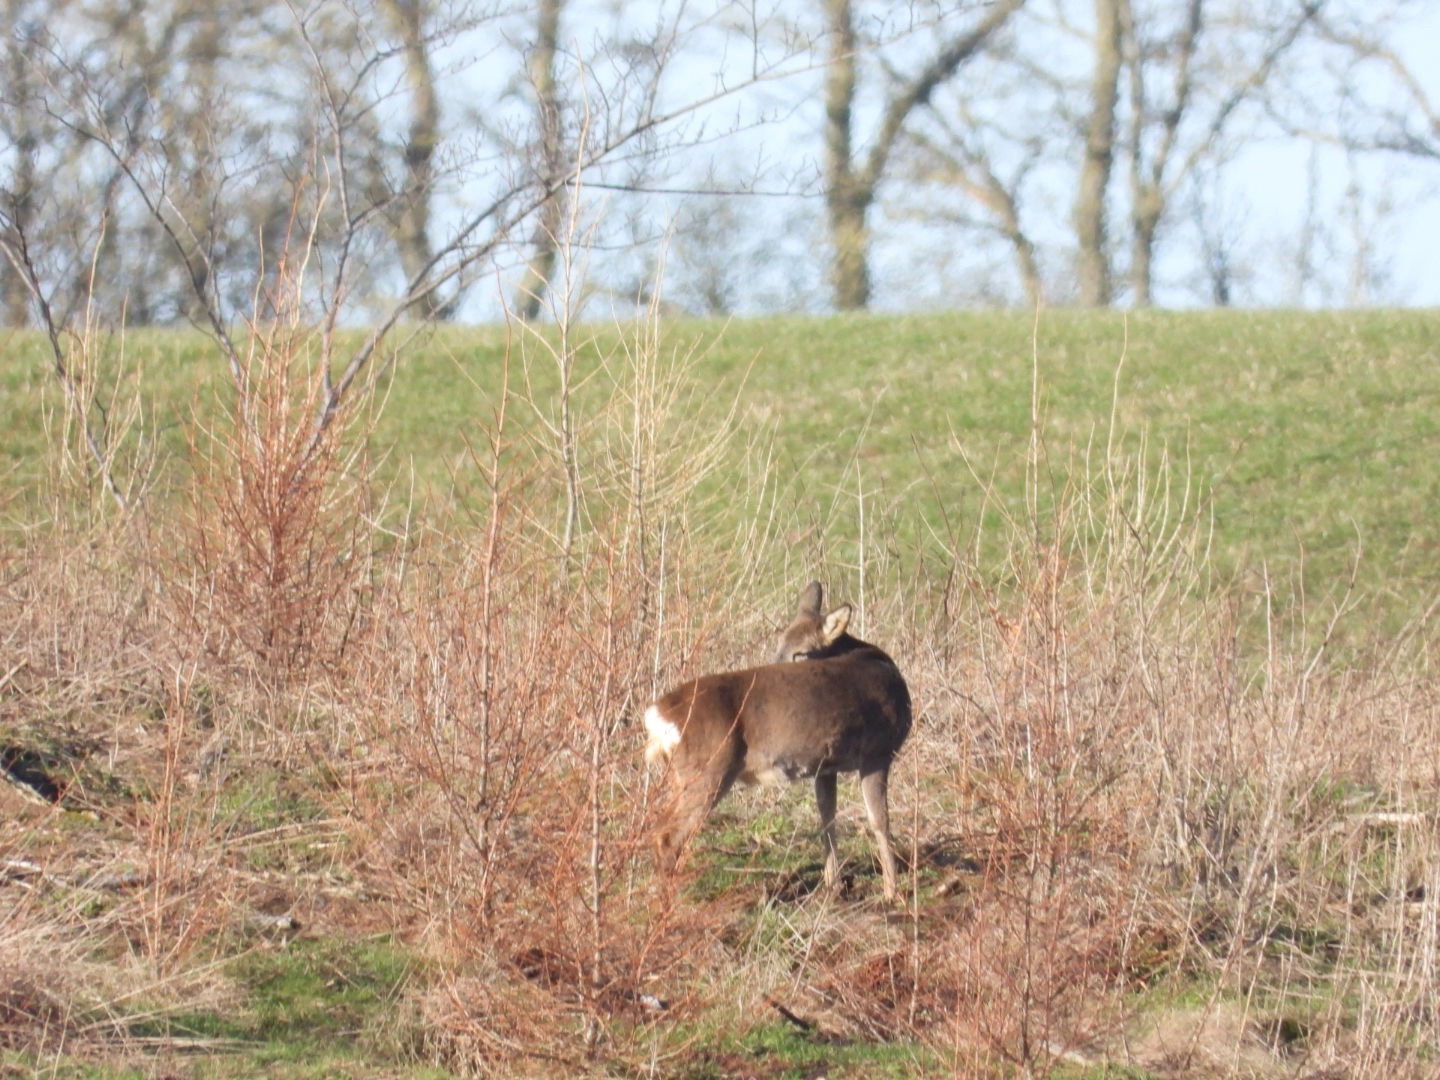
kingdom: Animalia
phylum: Chordata
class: Mammalia
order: Artiodactyla
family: Cervidae
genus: Capreolus
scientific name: Capreolus capreolus
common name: Rådyr
